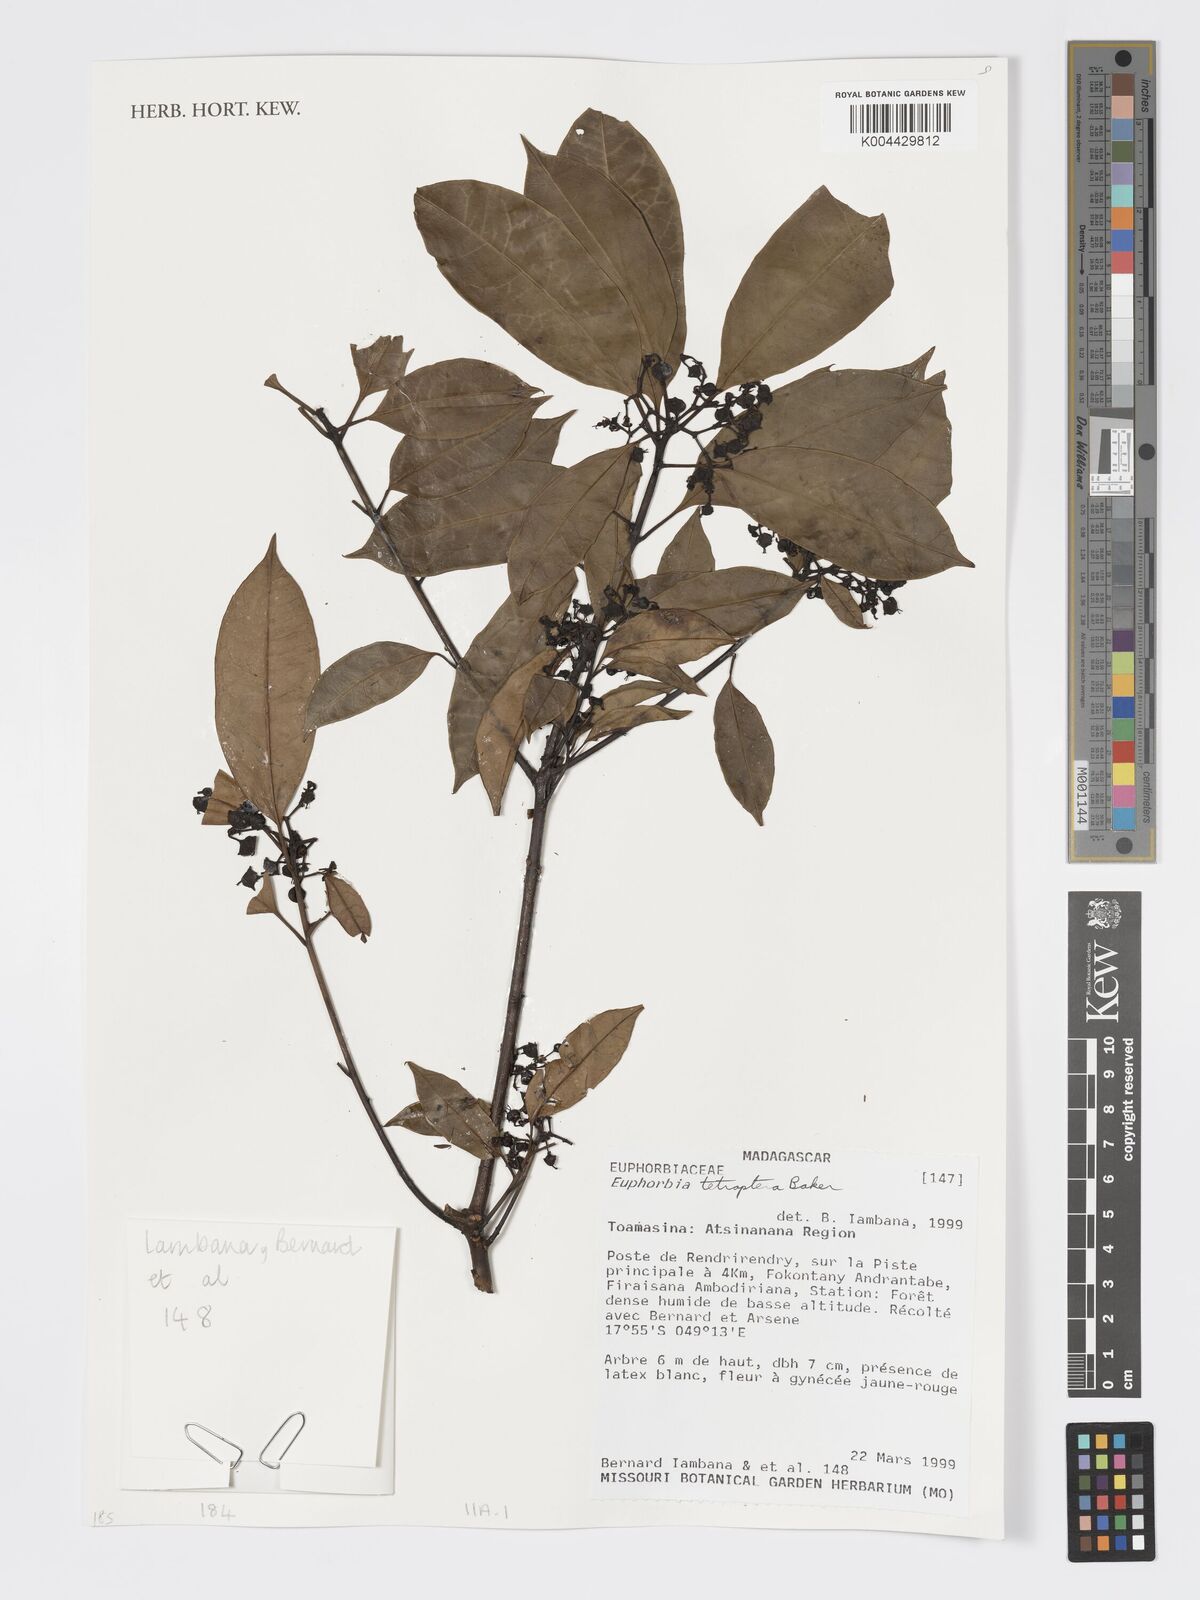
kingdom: Plantae
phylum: Tracheophyta
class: Magnoliopsida
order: Malpighiales
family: Euphorbiaceae
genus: Euphorbia
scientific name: Euphorbia tetraptera
